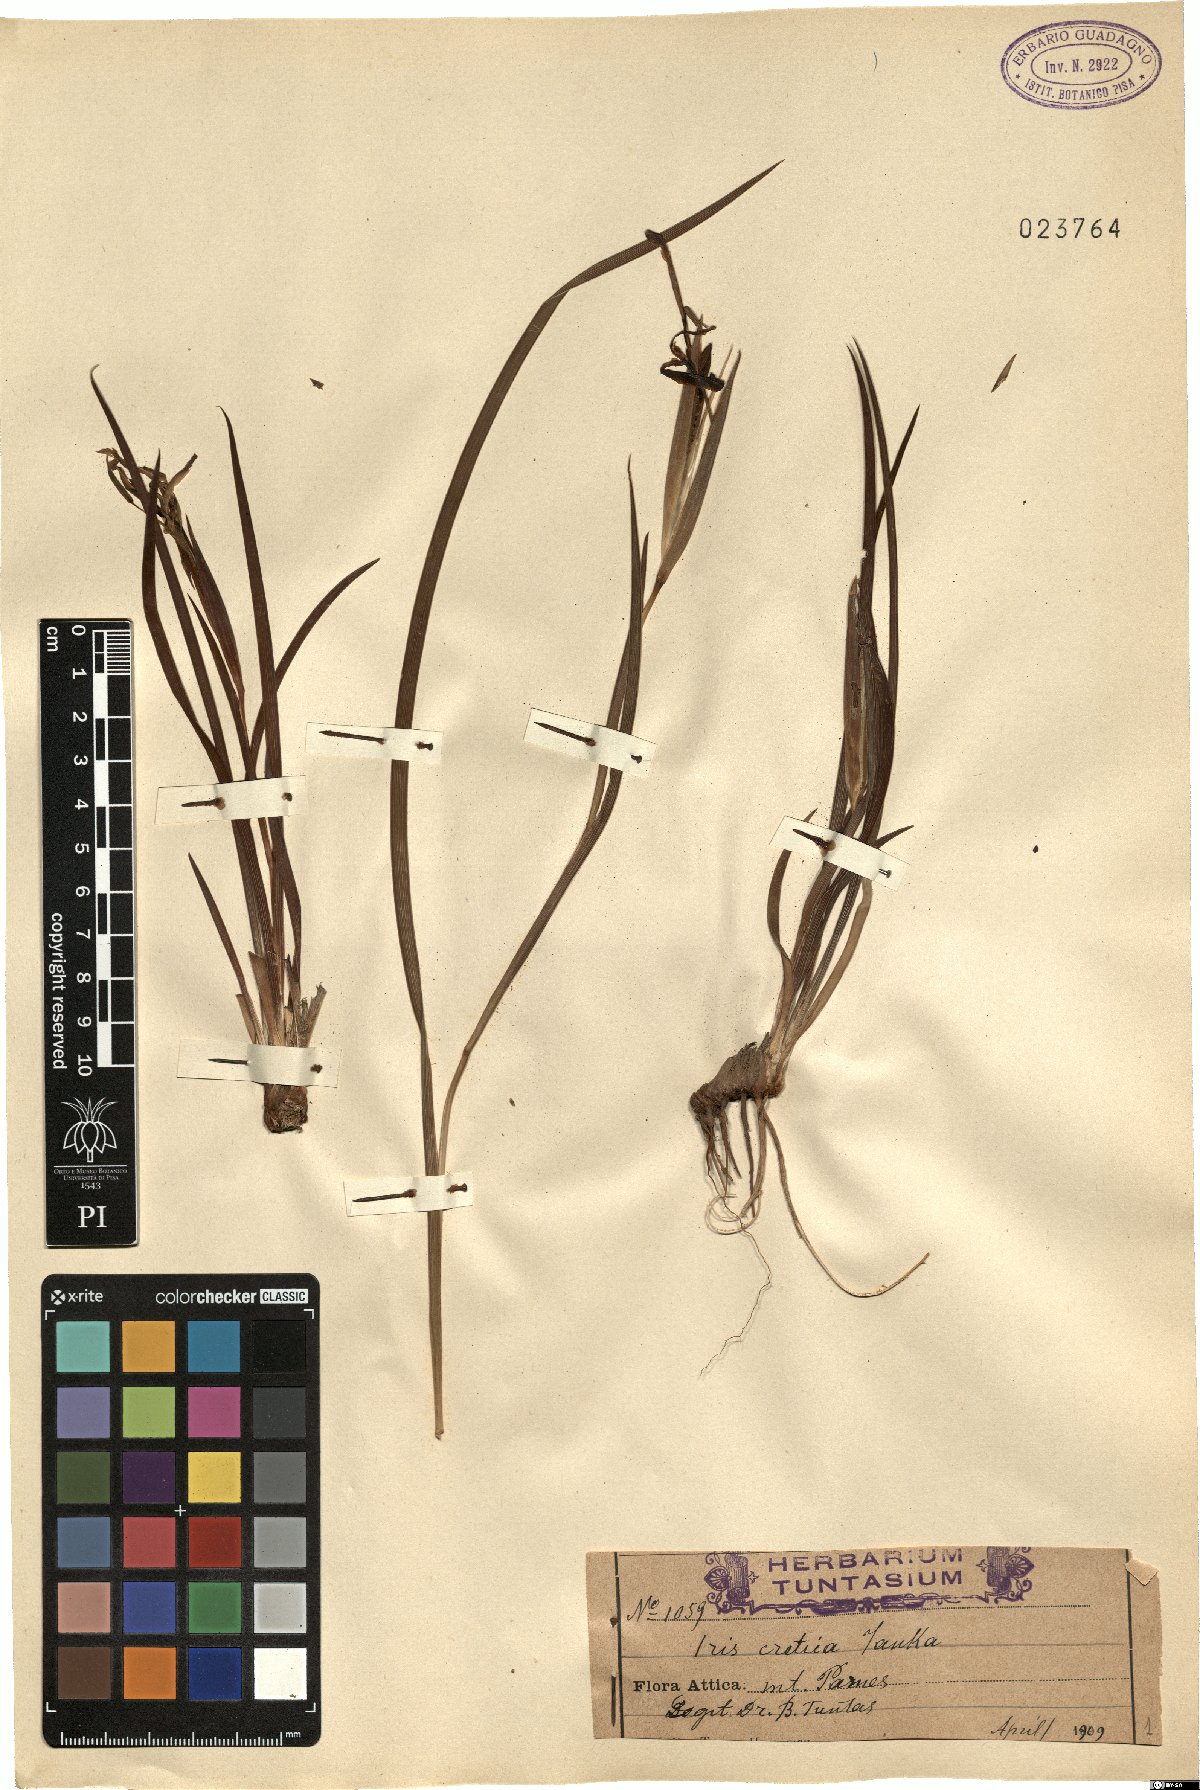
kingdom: Plantae
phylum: Tracheophyta
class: Liliopsida
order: Asparagales
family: Iridaceae
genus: Iris
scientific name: Iris unguicularis
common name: Algerian iris
